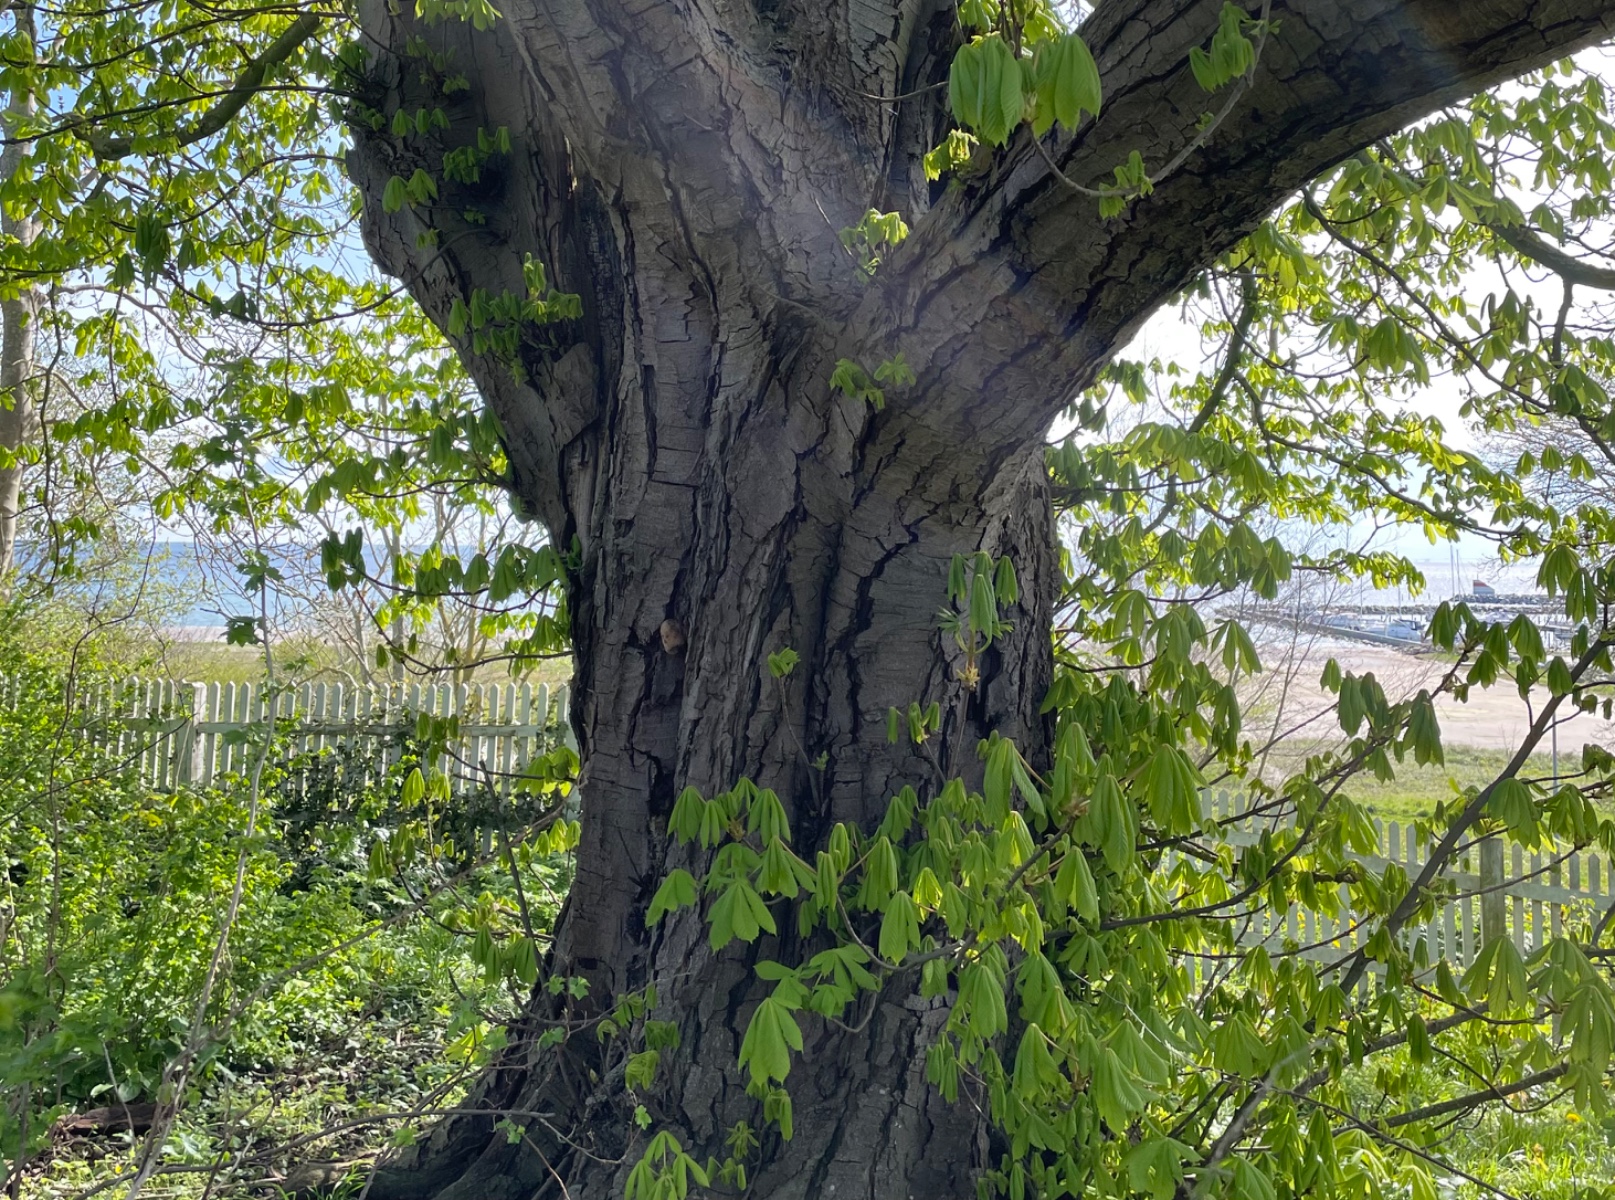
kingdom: Fungi
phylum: Basidiomycota
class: Agaricomycetes
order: Polyporales
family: Polyporaceae
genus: Ganoderma
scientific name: Ganoderma adspersum
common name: grov lakporesvamp
